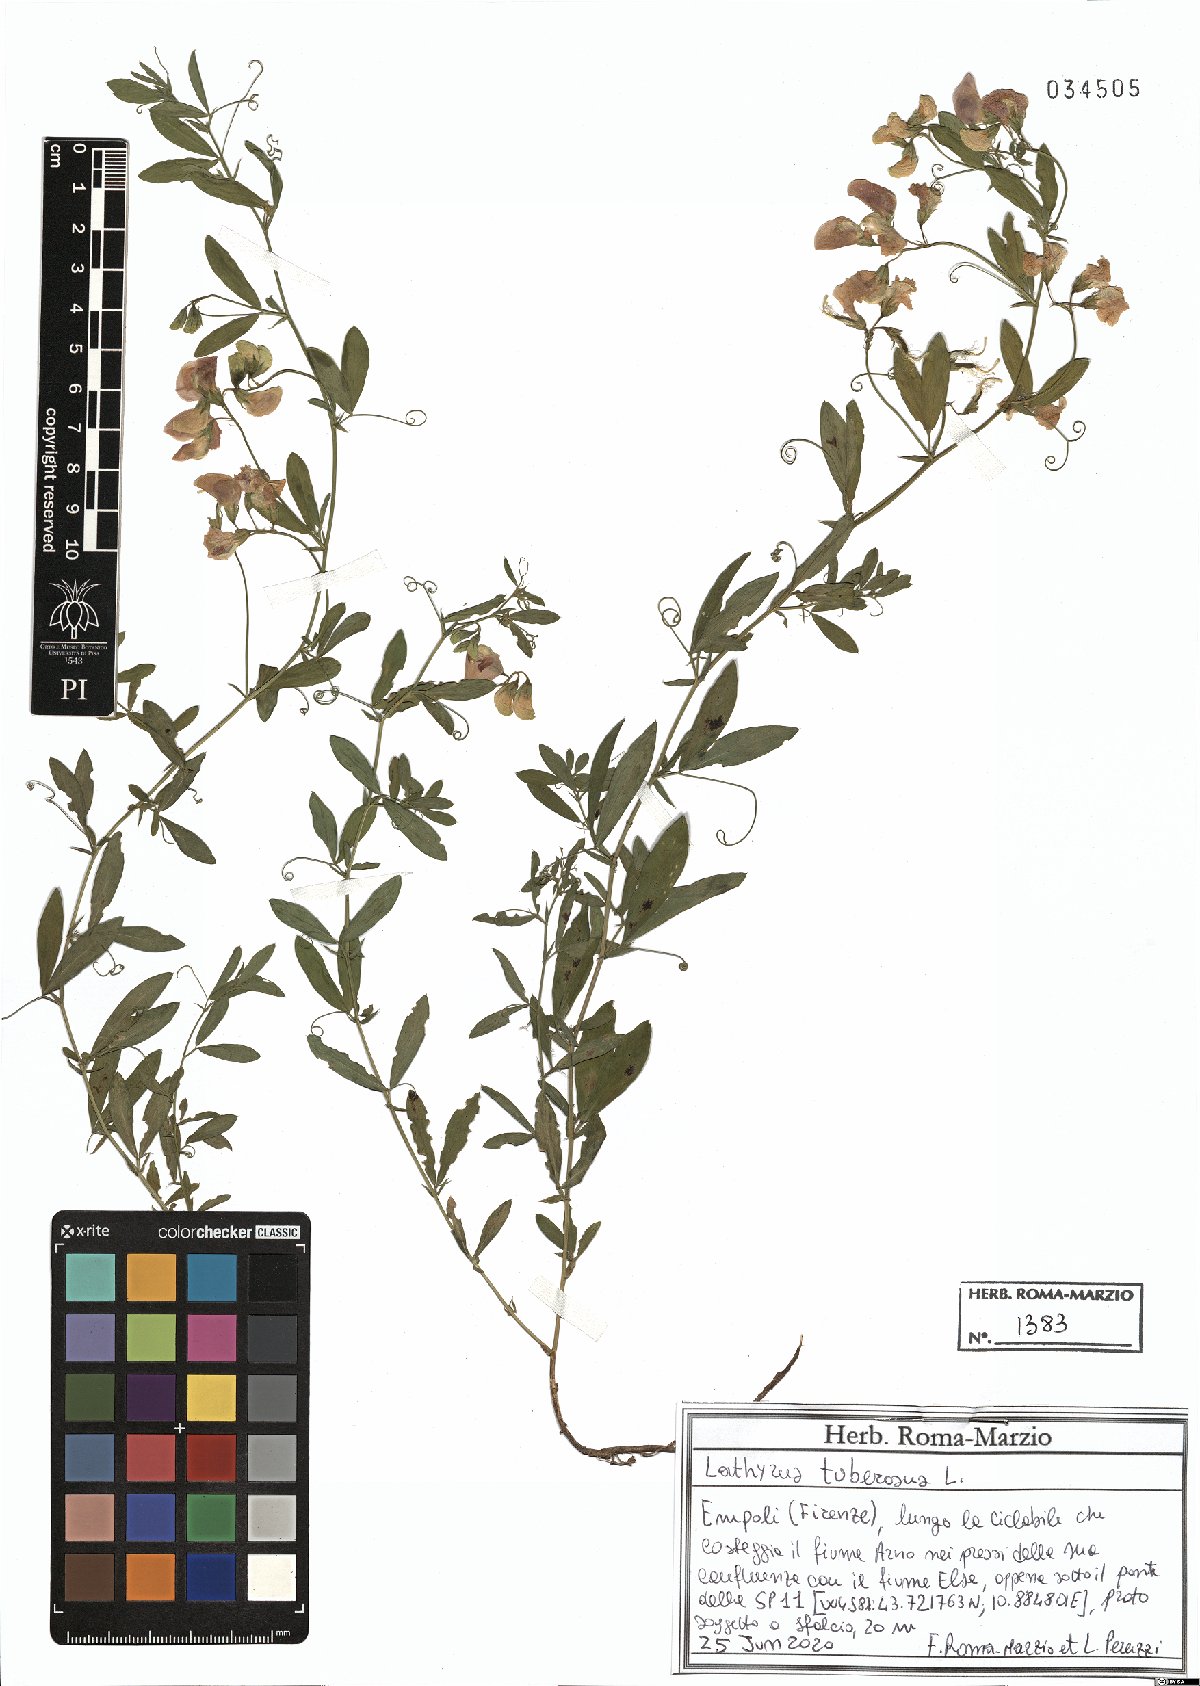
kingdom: Plantae
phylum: Tracheophyta
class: Magnoliopsida
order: Fabales
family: Fabaceae
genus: Lathyrus
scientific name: Lathyrus tuberosus
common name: Tuberous pea
